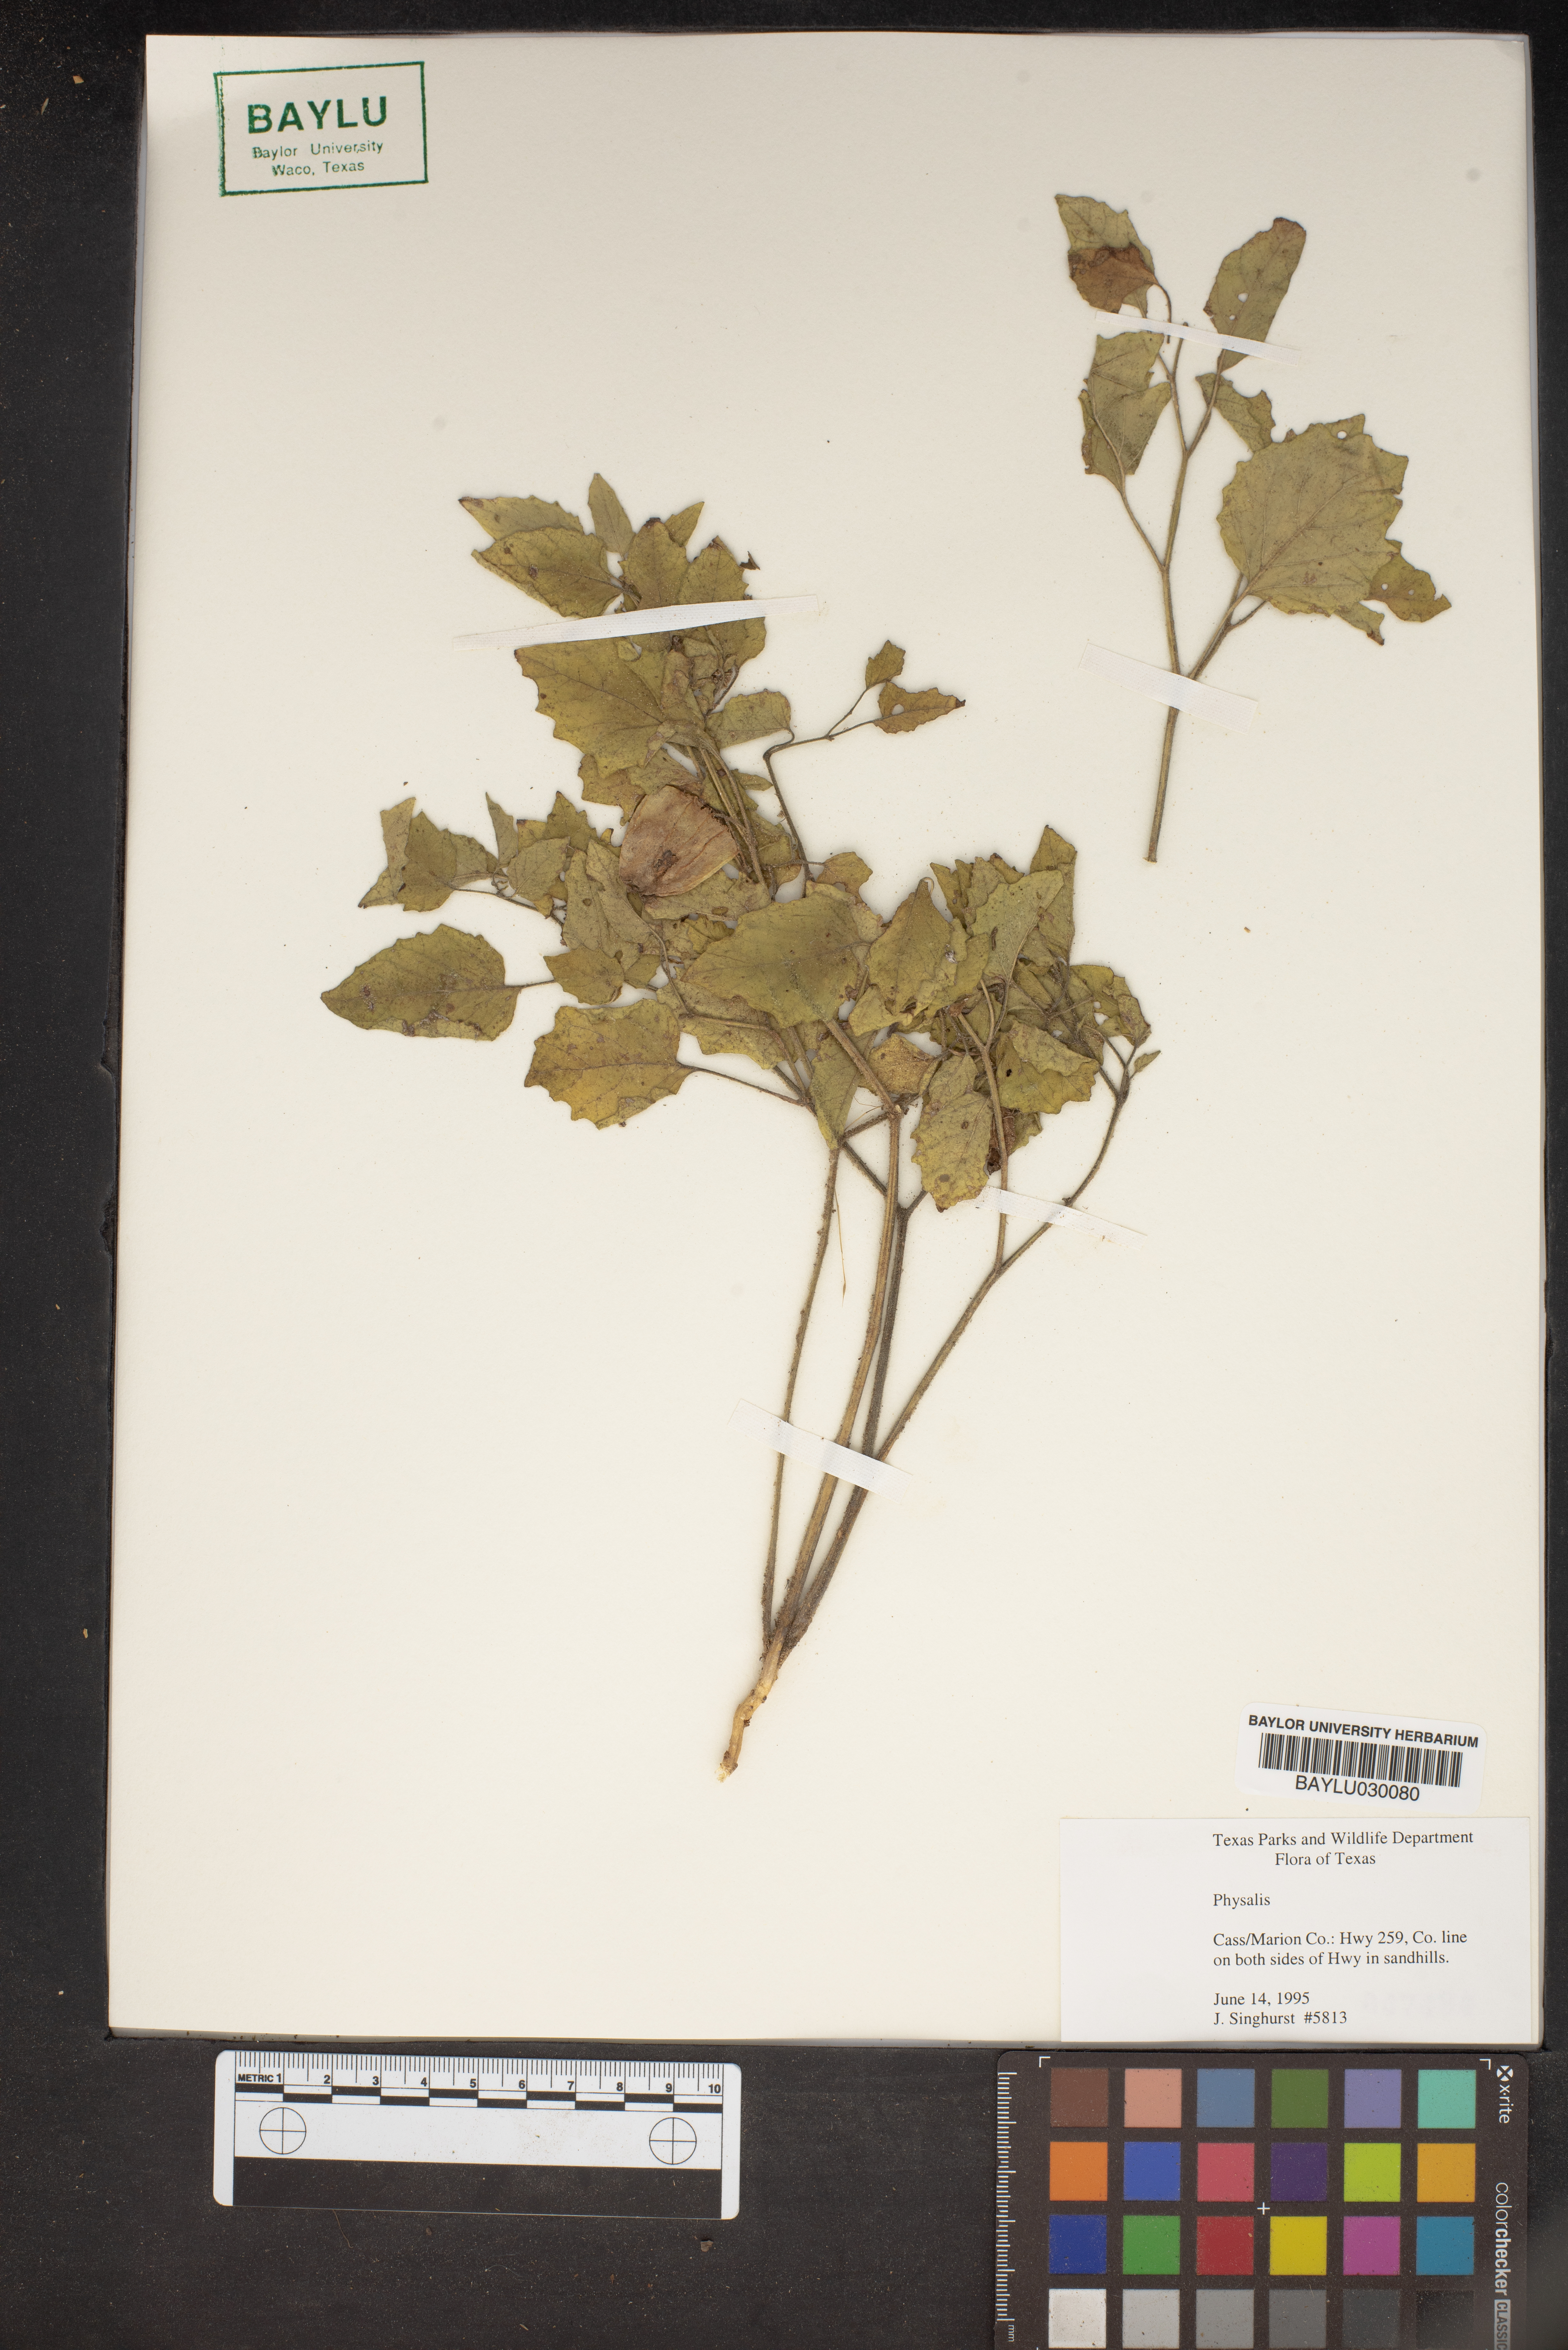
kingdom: Plantae
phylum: Tracheophyta
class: Magnoliopsida
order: Solanales
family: Solanaceae
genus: Physalis
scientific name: Physalis
